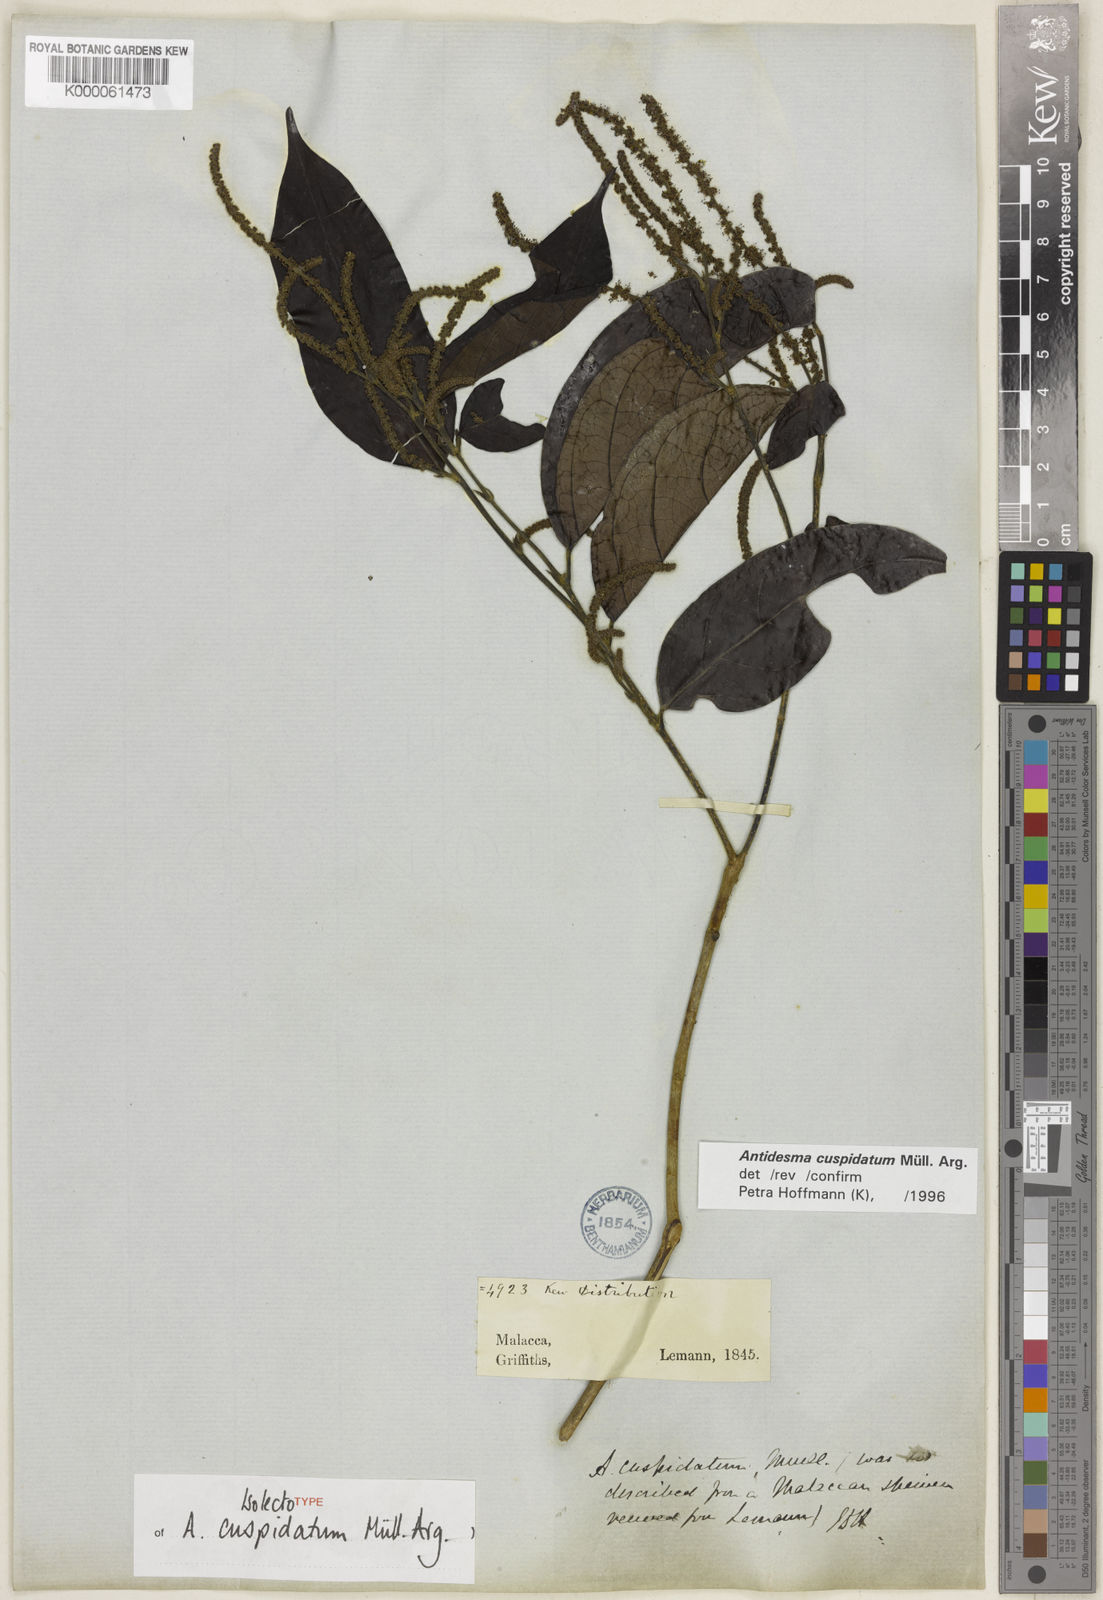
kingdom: Plantae
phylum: Tracheophyta
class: Magnoliopsida
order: Malpighiales
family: Phyllanthaceae
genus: Antidesma
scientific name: Antidesma
